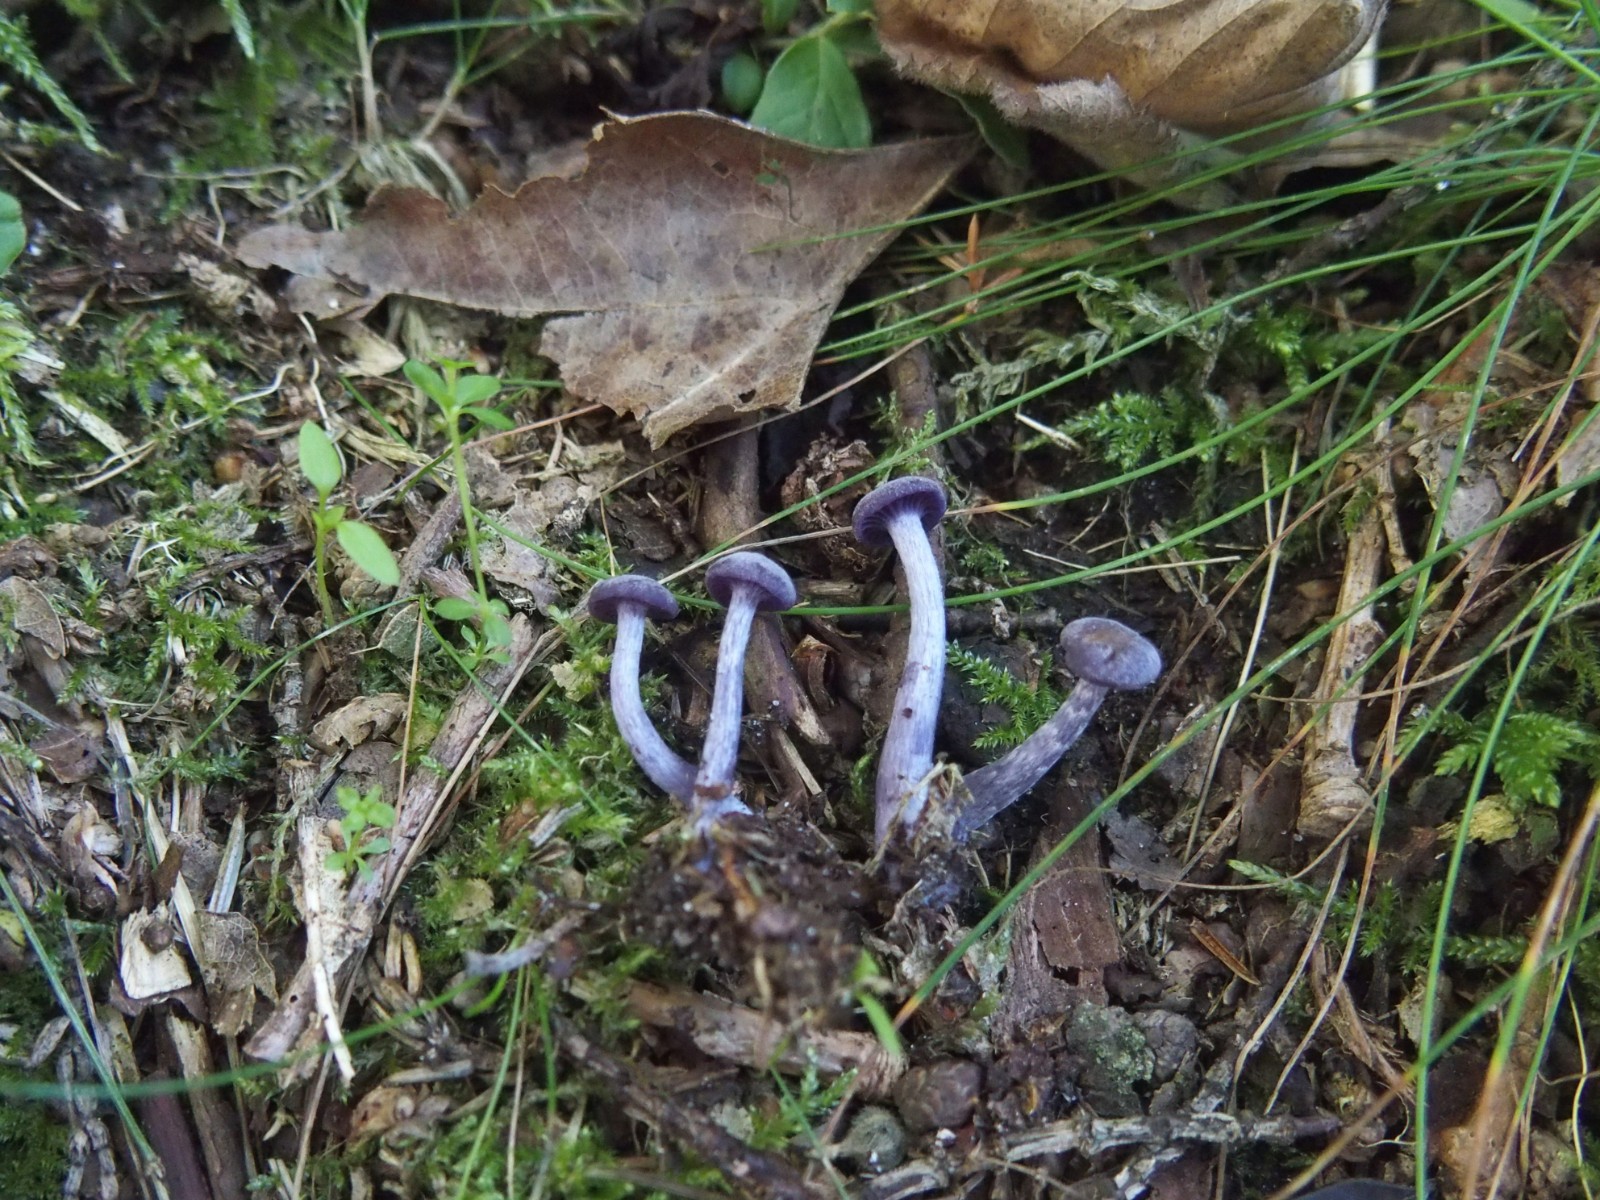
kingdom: Fungi
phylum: Basidiomycota
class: Agaricomycetes
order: Agaricales
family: Hydnangiaceae
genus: Laccaria
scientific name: Laccaria amethystina
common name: violet ametysthat
